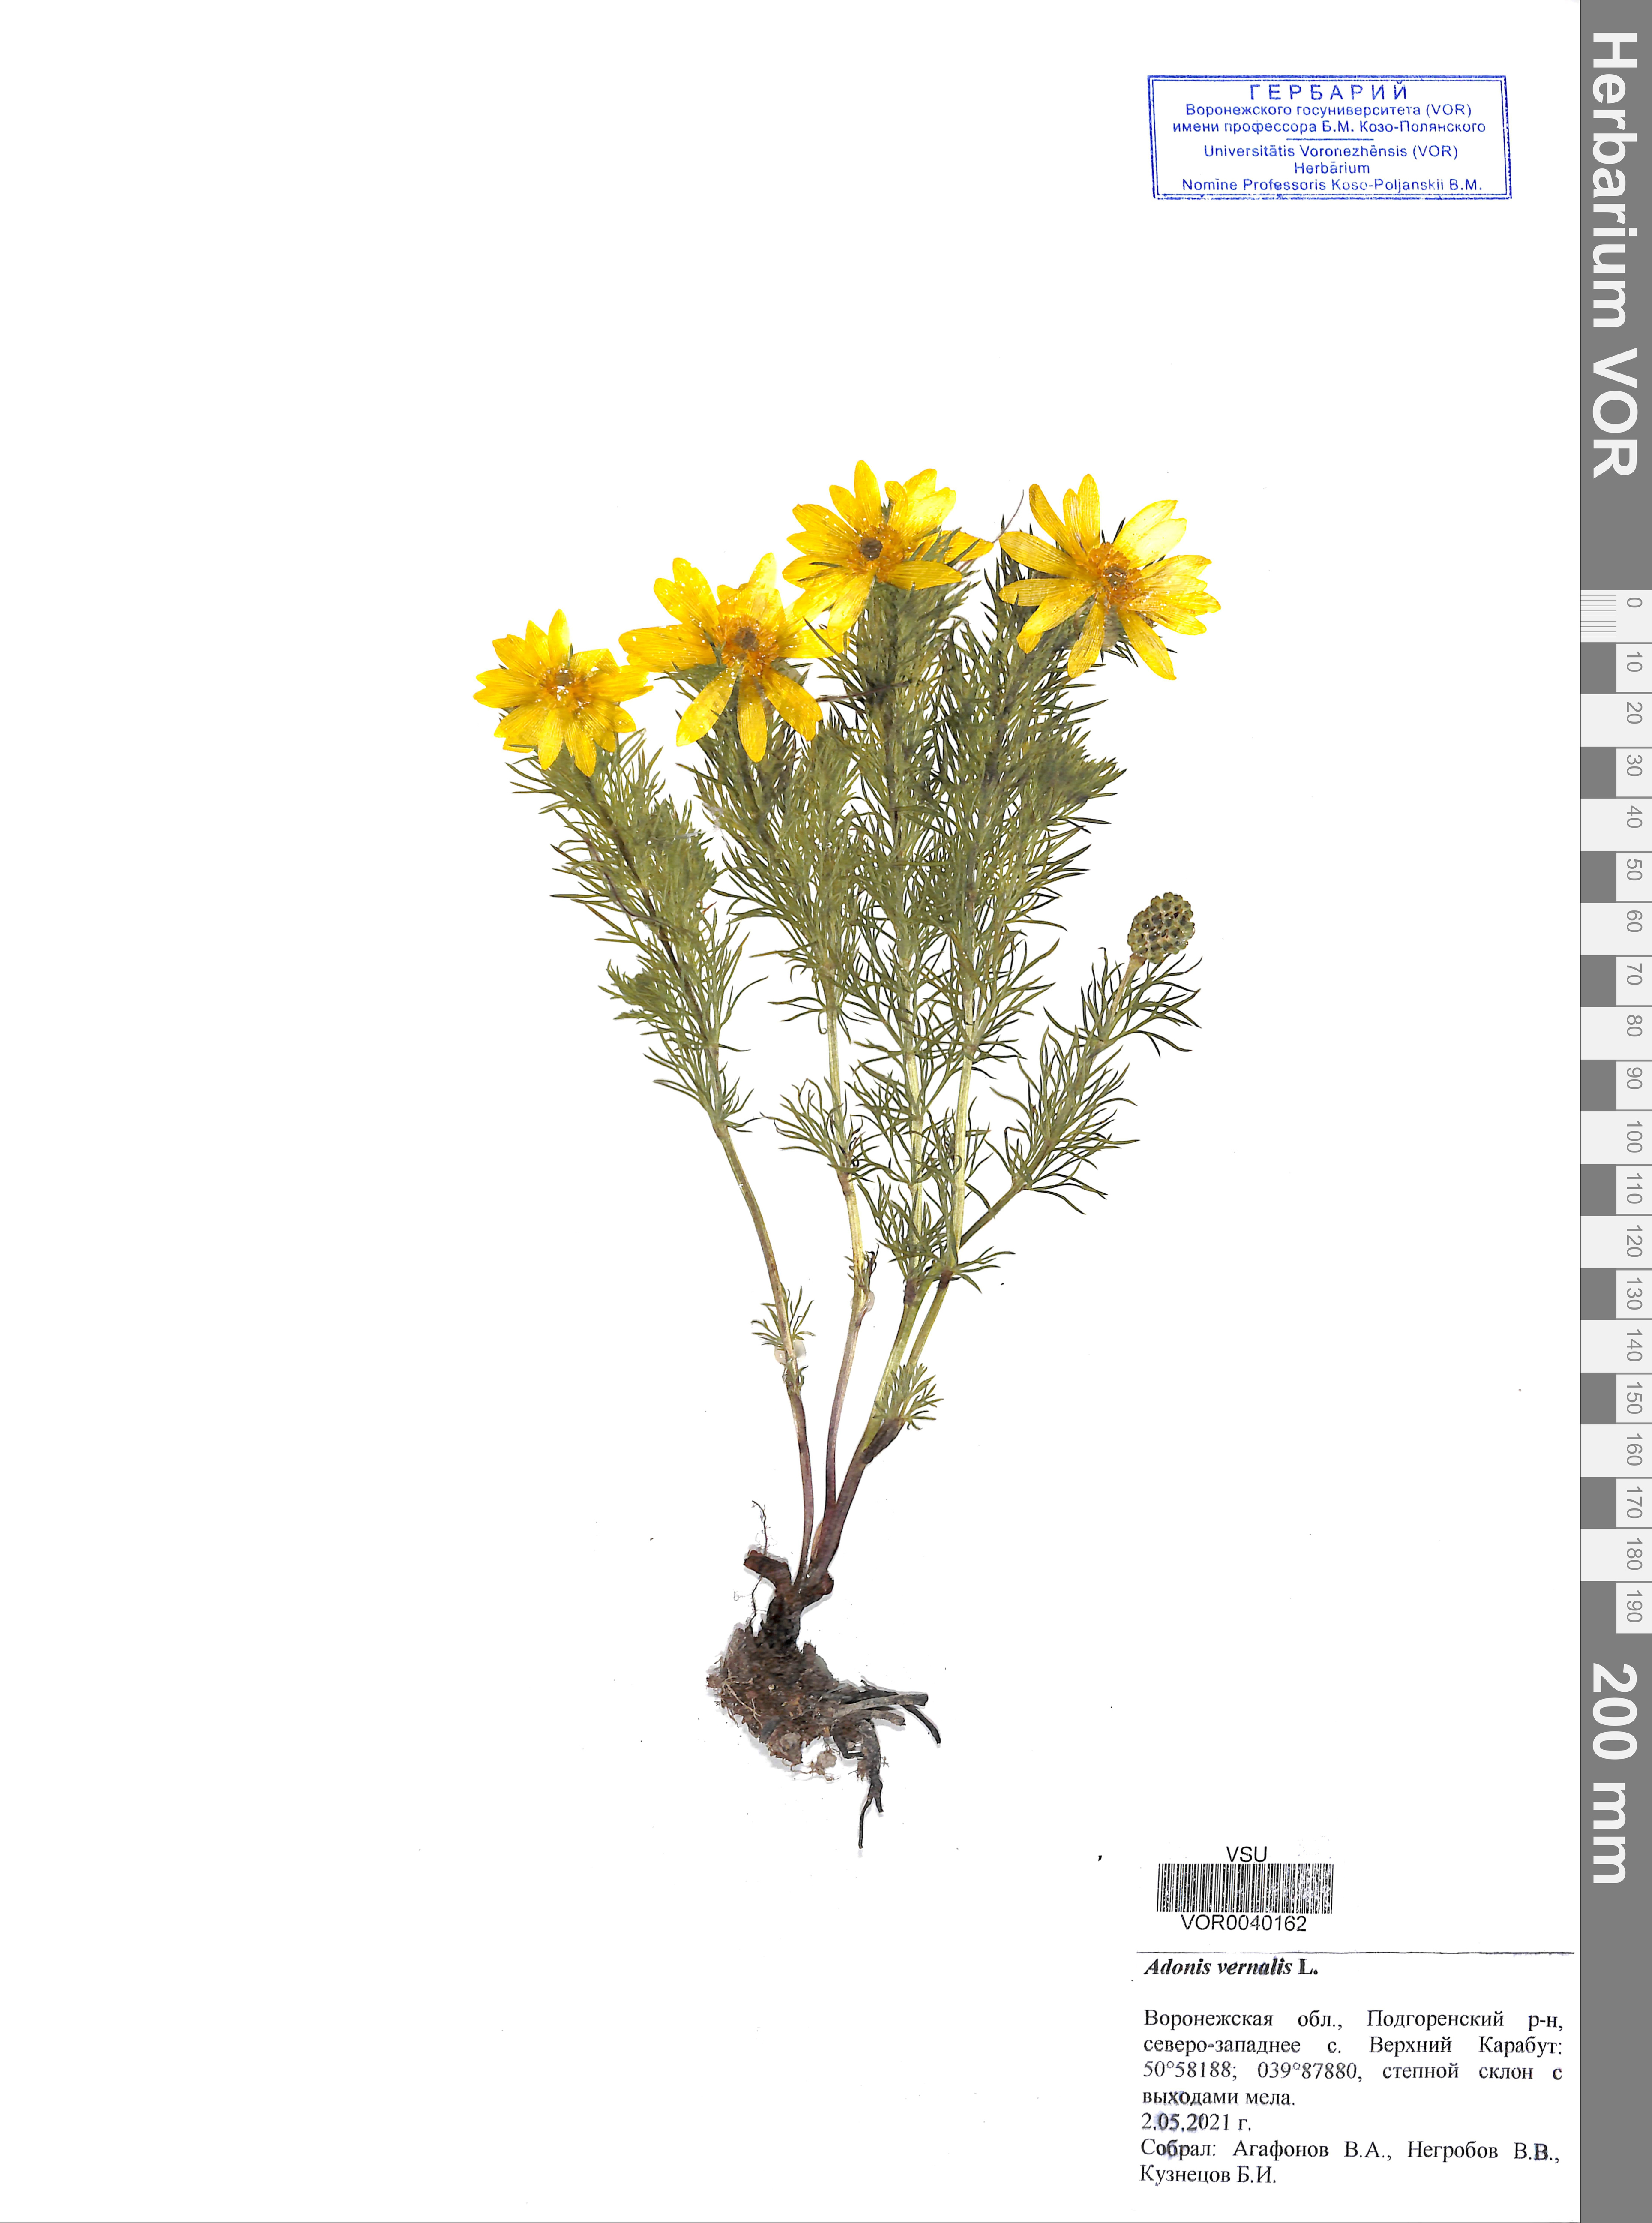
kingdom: Plantae
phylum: Tracheophyta
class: Magnoliopsida
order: Ranunculales
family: Ranunculaceae
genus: Adonis
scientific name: Adonis vernalis
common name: Yellow pheasants-eye
